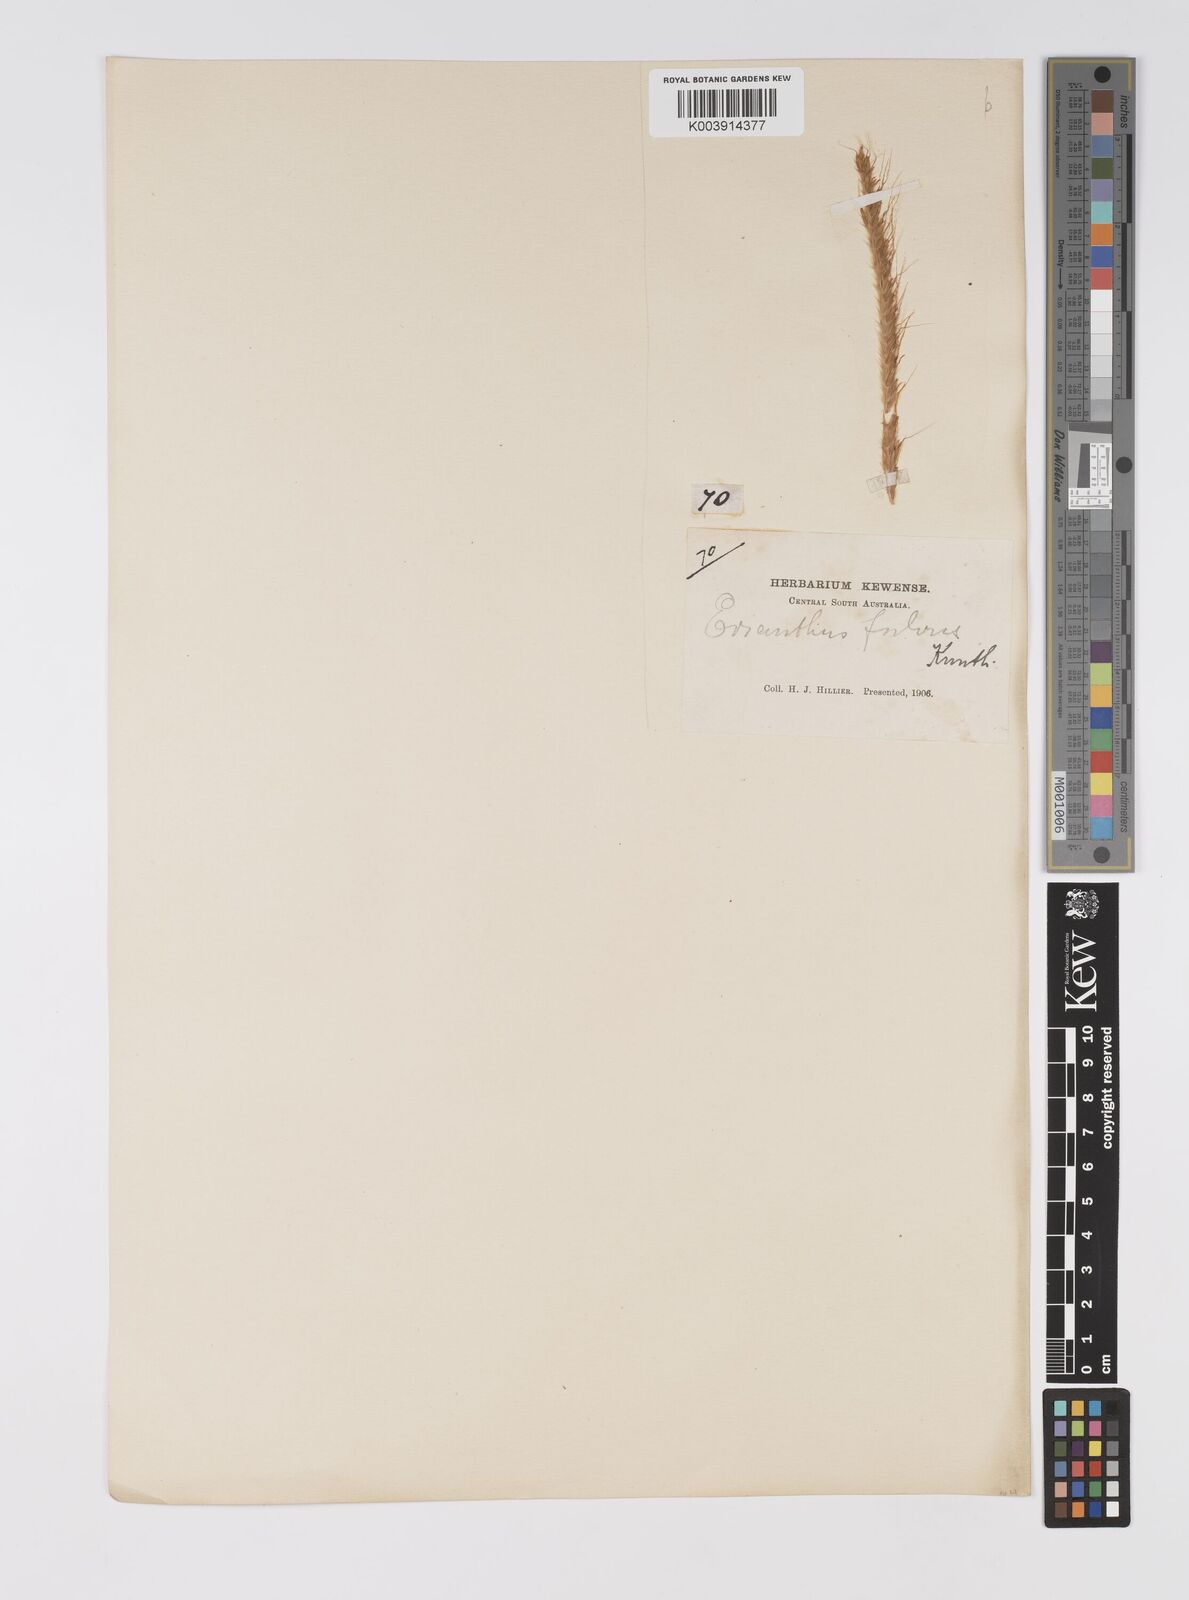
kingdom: Plantae
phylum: Tracheophyta
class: Liliopsida
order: Poales
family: Poaceae
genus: Eulalia
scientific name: Eulalia aurea
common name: Silky browntop
